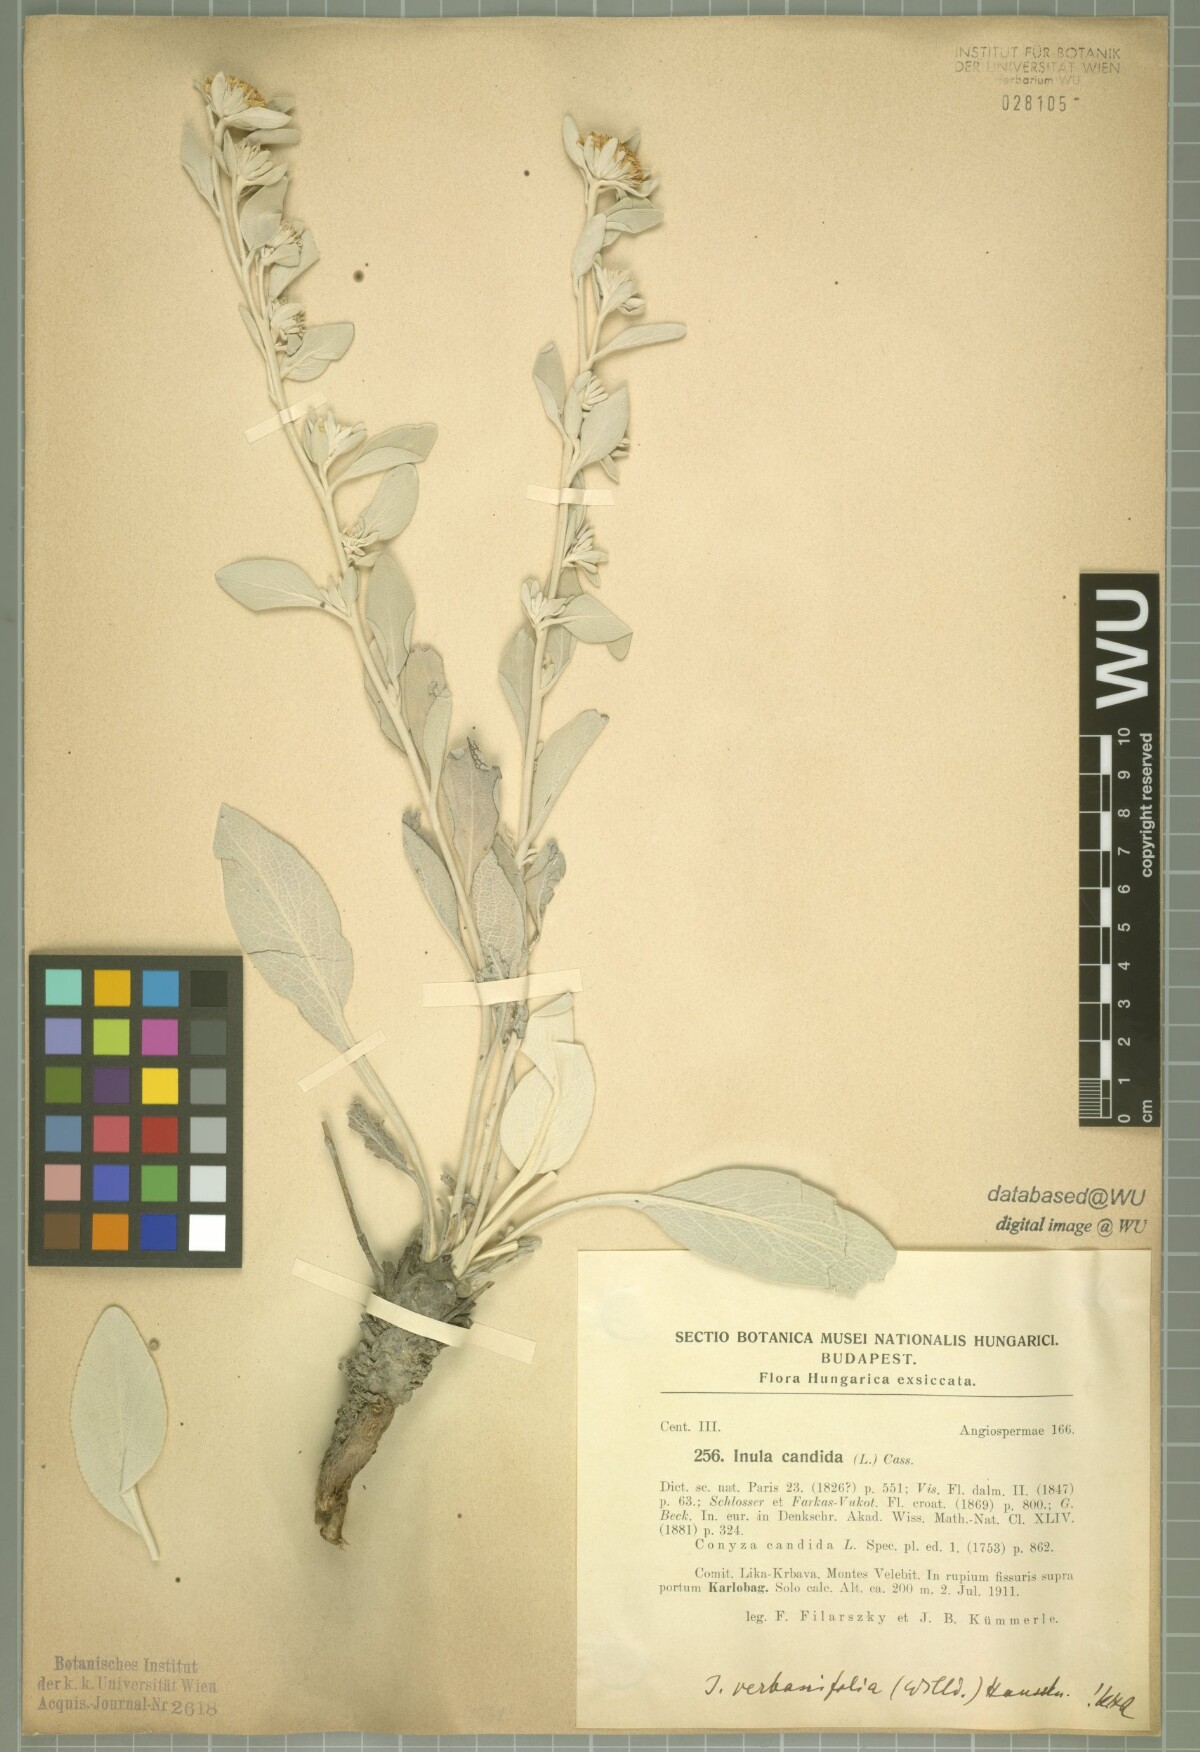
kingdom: Plantae
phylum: Tracheophyta
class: Magnoliopsida
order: Asterales
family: Asteraceae
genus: Pentanema
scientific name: Pentanema verbascifolium
